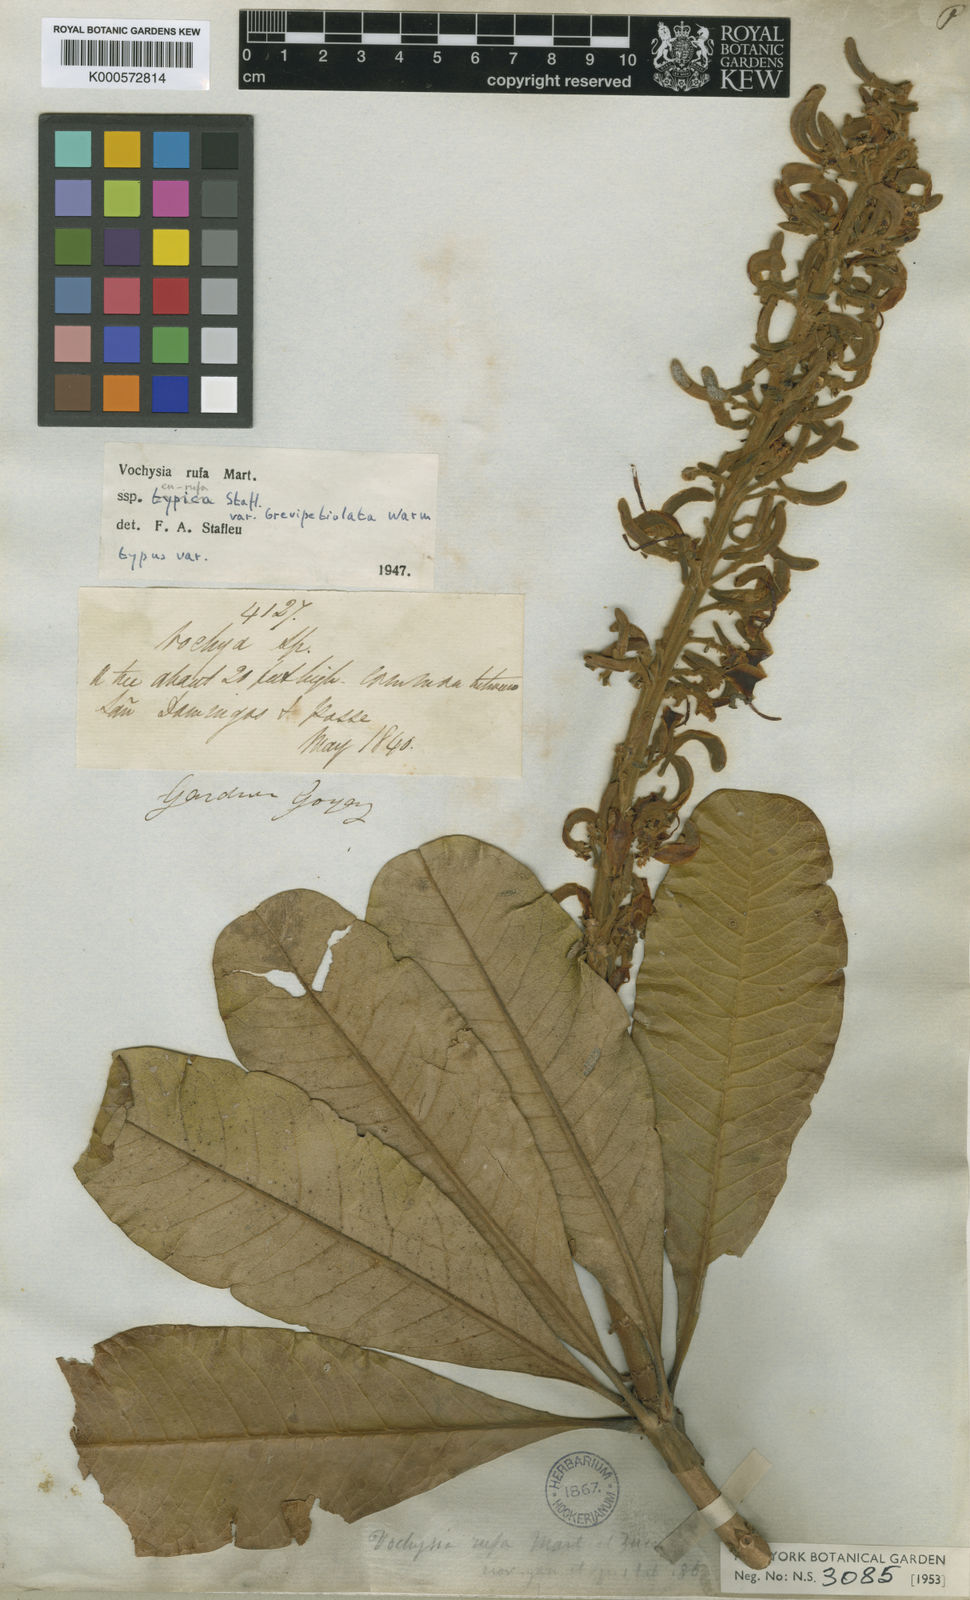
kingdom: Plantae
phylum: Tracheophyta
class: Magnoliopsida
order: Myrtales
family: Vochysiaceae
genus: Vochysia
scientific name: Vochysia rufa
